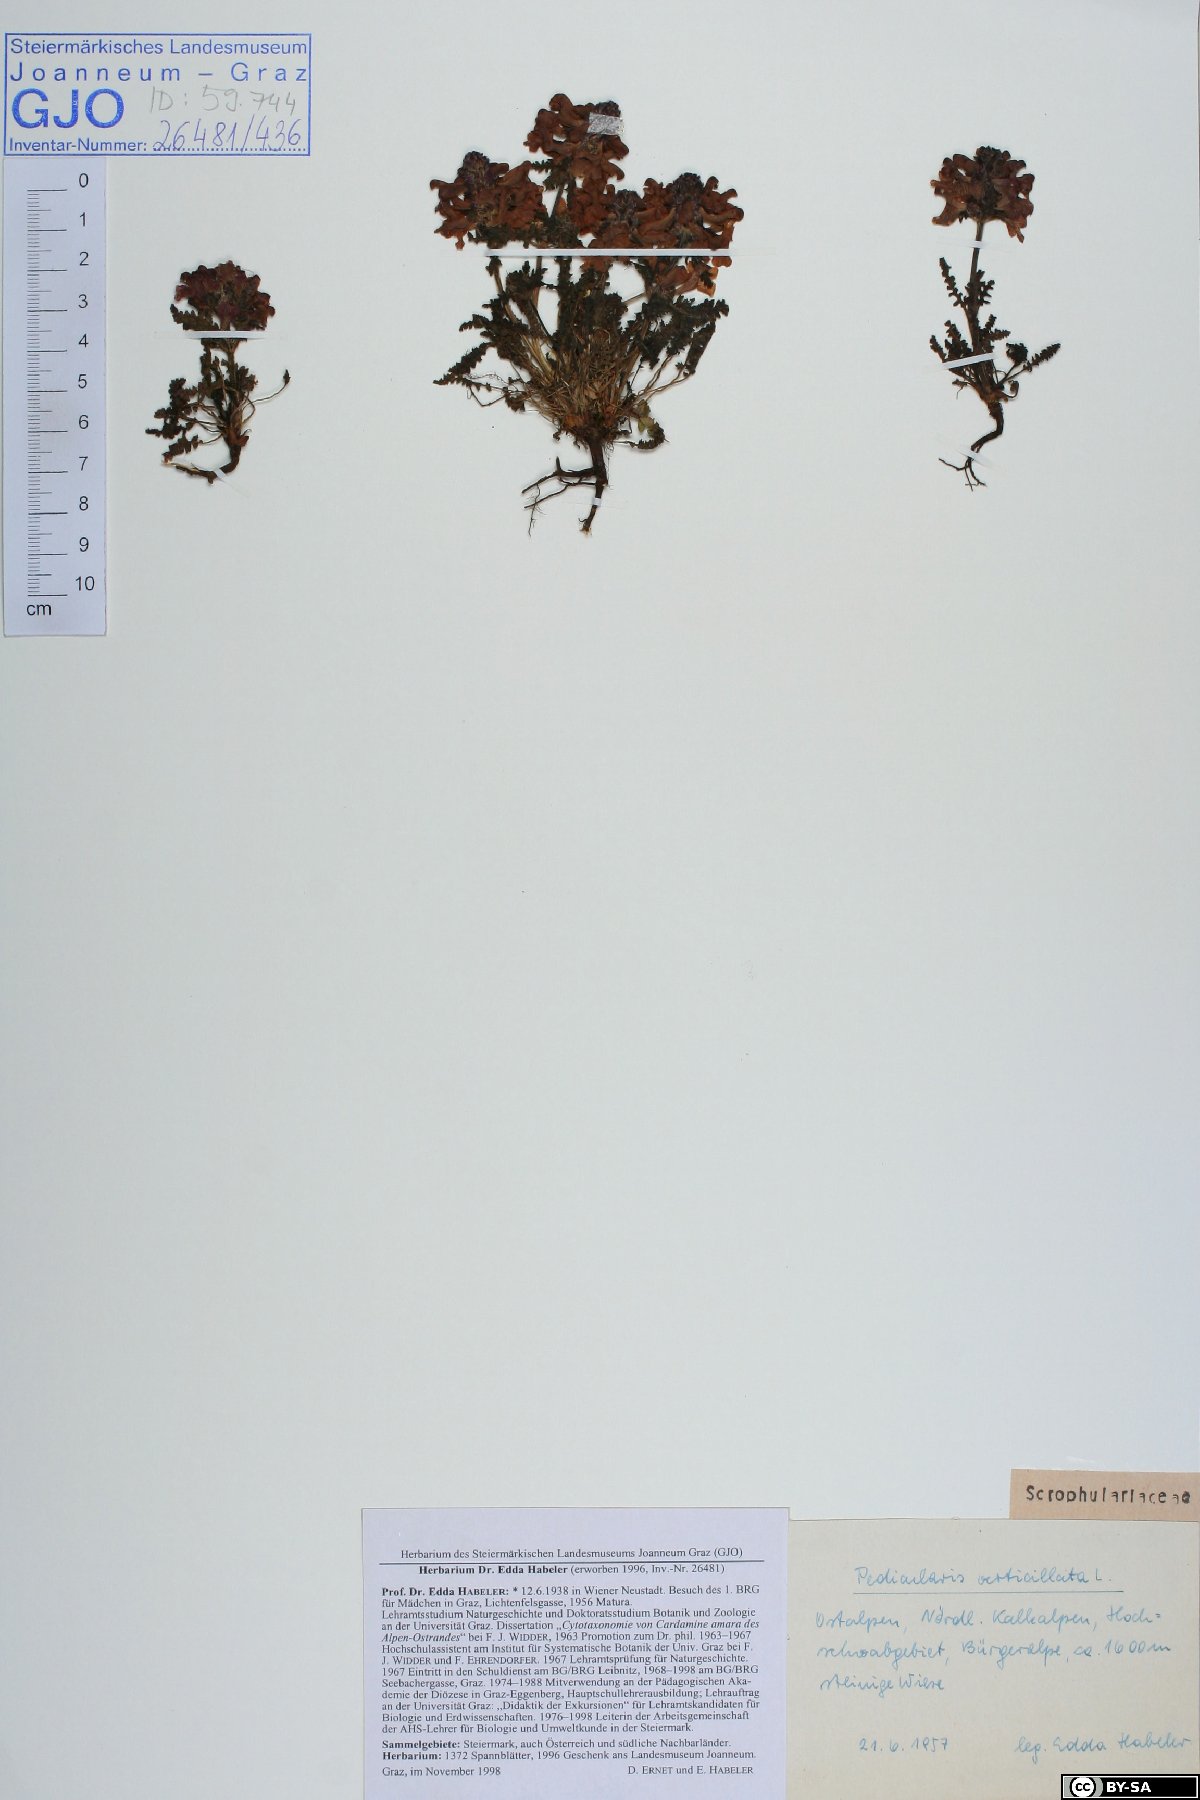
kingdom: Plantae
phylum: Tracheophyta
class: Magnoliopsida
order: Lamiales
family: Orobanchaceae
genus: Pedicularis
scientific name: Pedicularis verticillata
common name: Whorled lousewort
